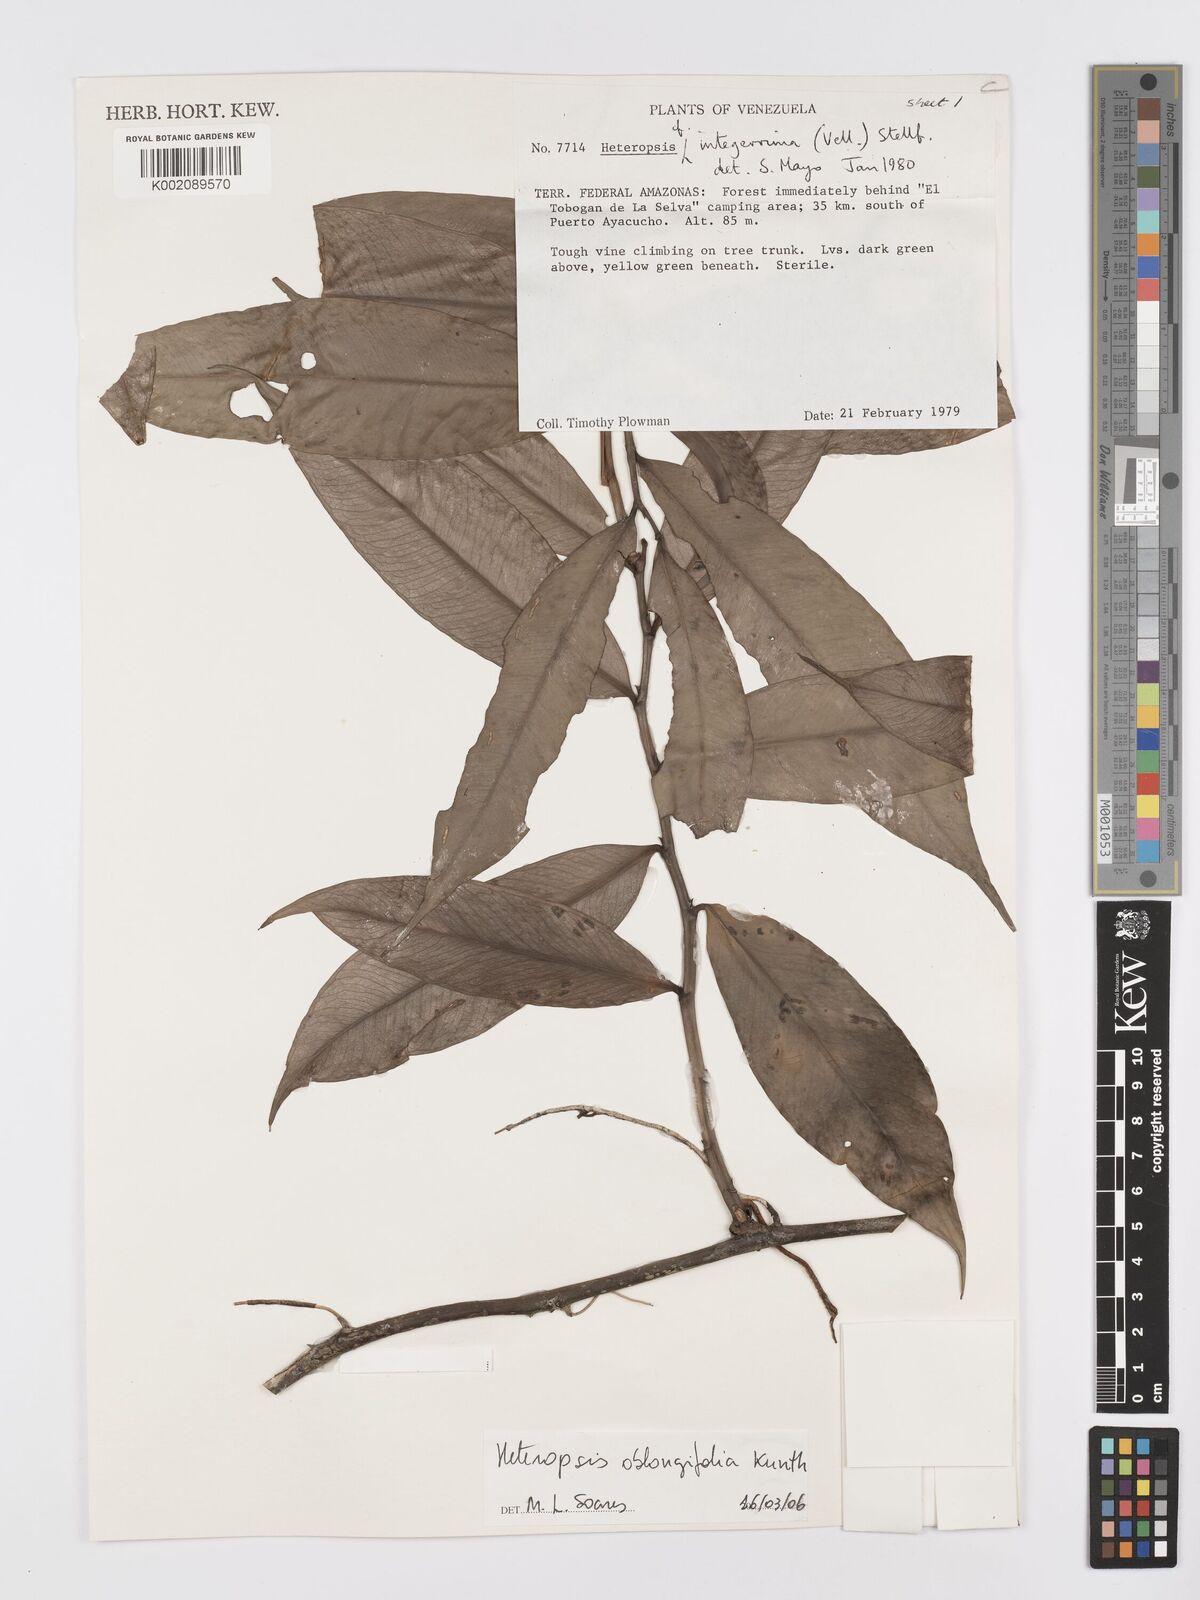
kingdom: Plantae
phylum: Tracheophyta
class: Liliopsida
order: Alismatales
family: Araceae
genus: Heteropsis
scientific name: Heteropsis oblongifolia
